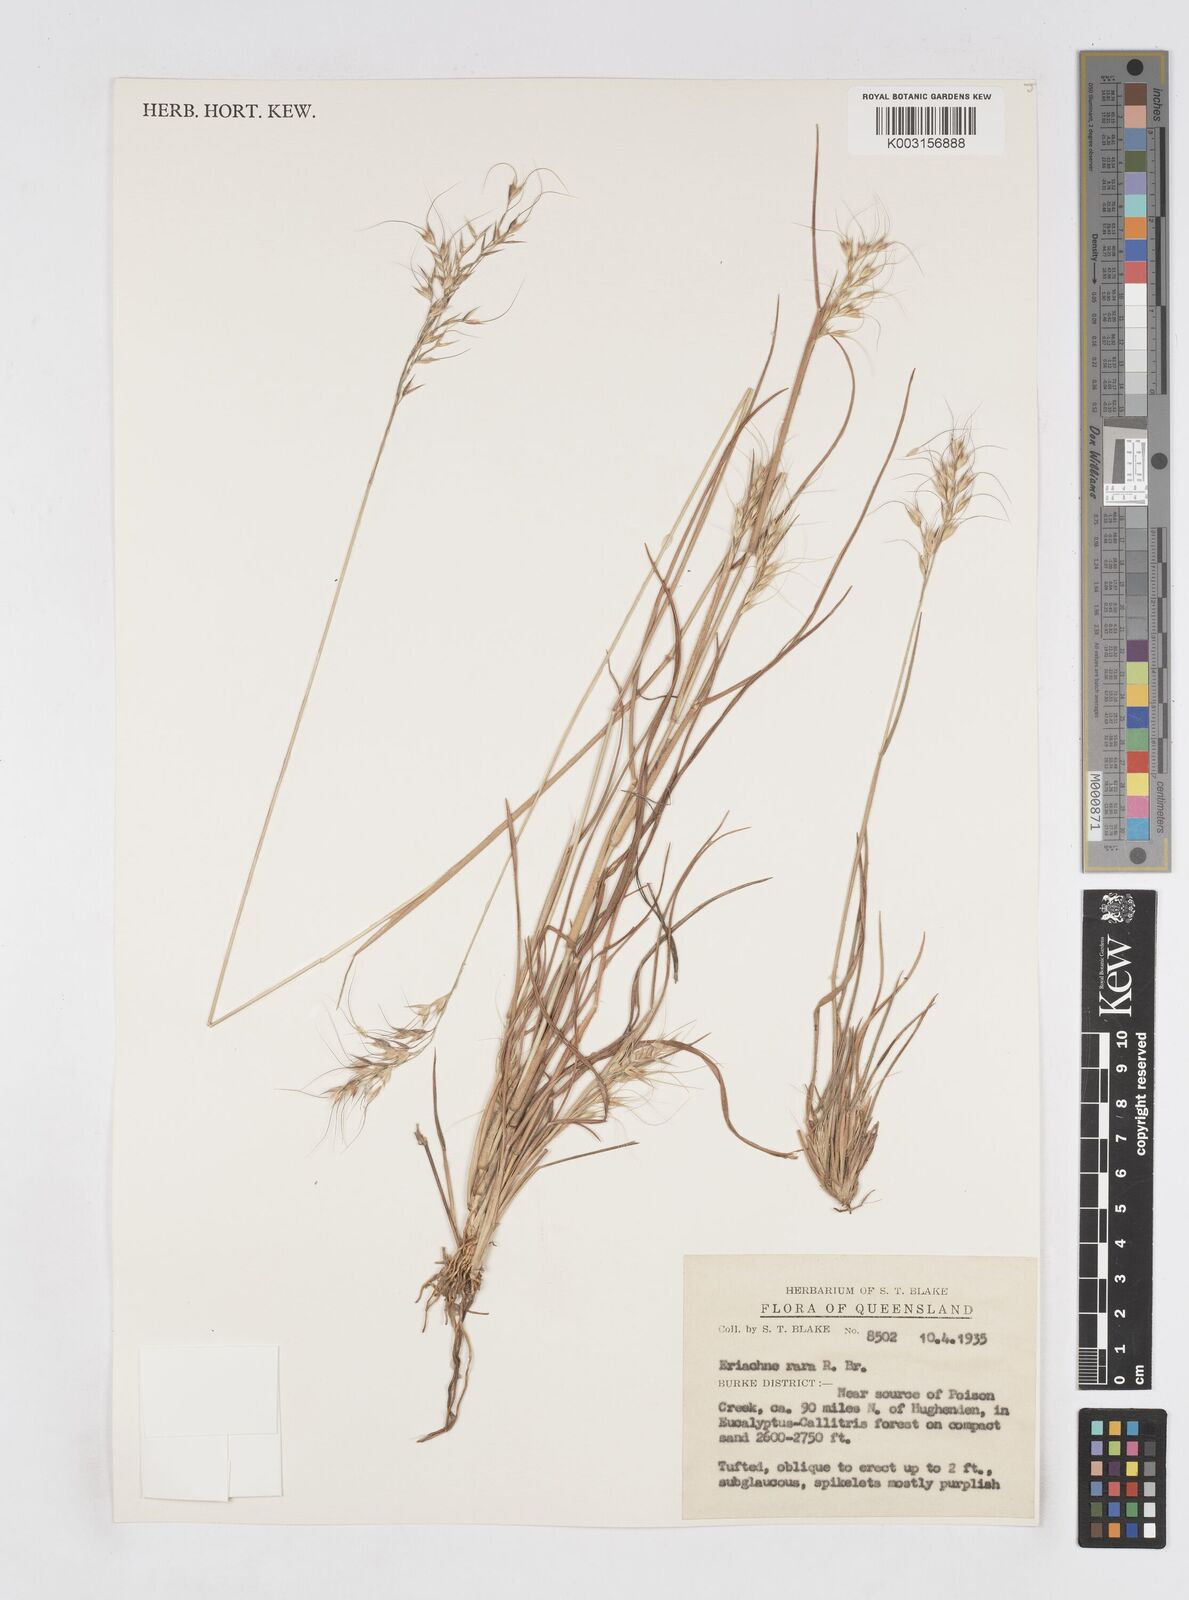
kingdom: Plantae
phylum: Tracheophyta
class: Liliopsida
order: Poales
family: Poaceae
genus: Eriachne
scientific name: Eriachne rara
